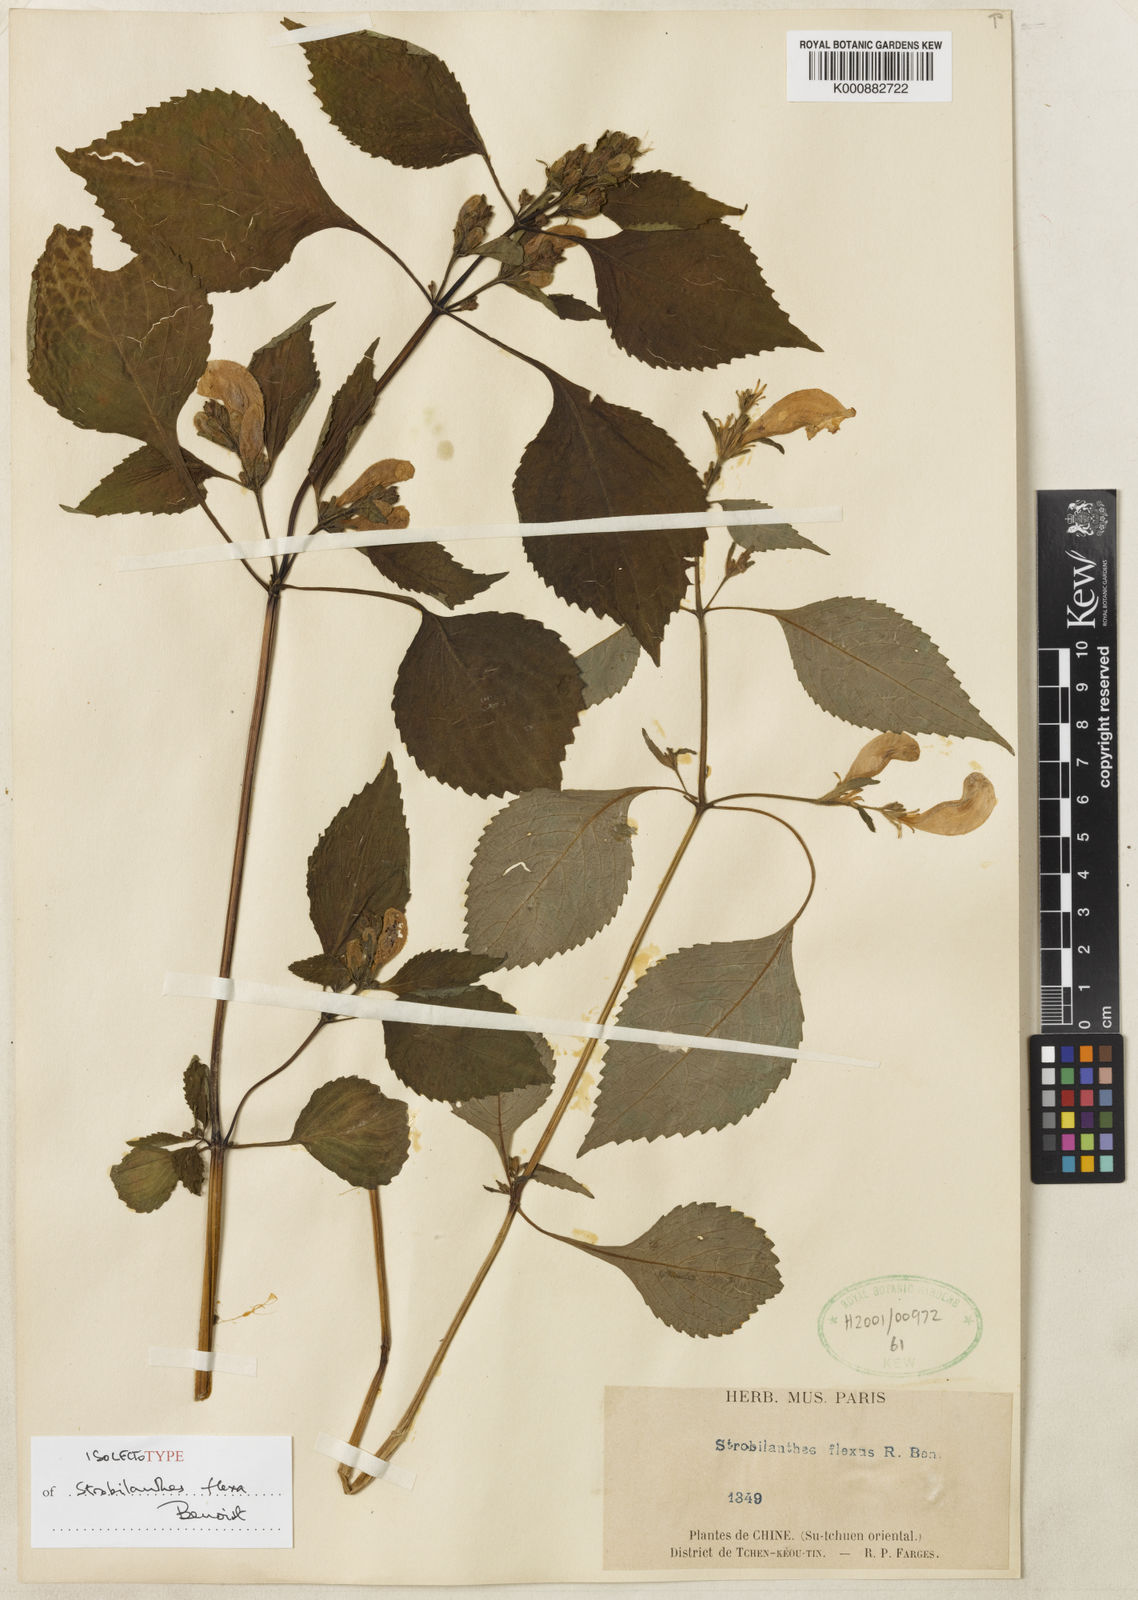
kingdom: Plantae
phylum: Tracheophyta
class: Magnoliopsida
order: Lamiales
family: Acanthaceae
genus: Strobilanthes
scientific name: Strobilanthes versicolor
